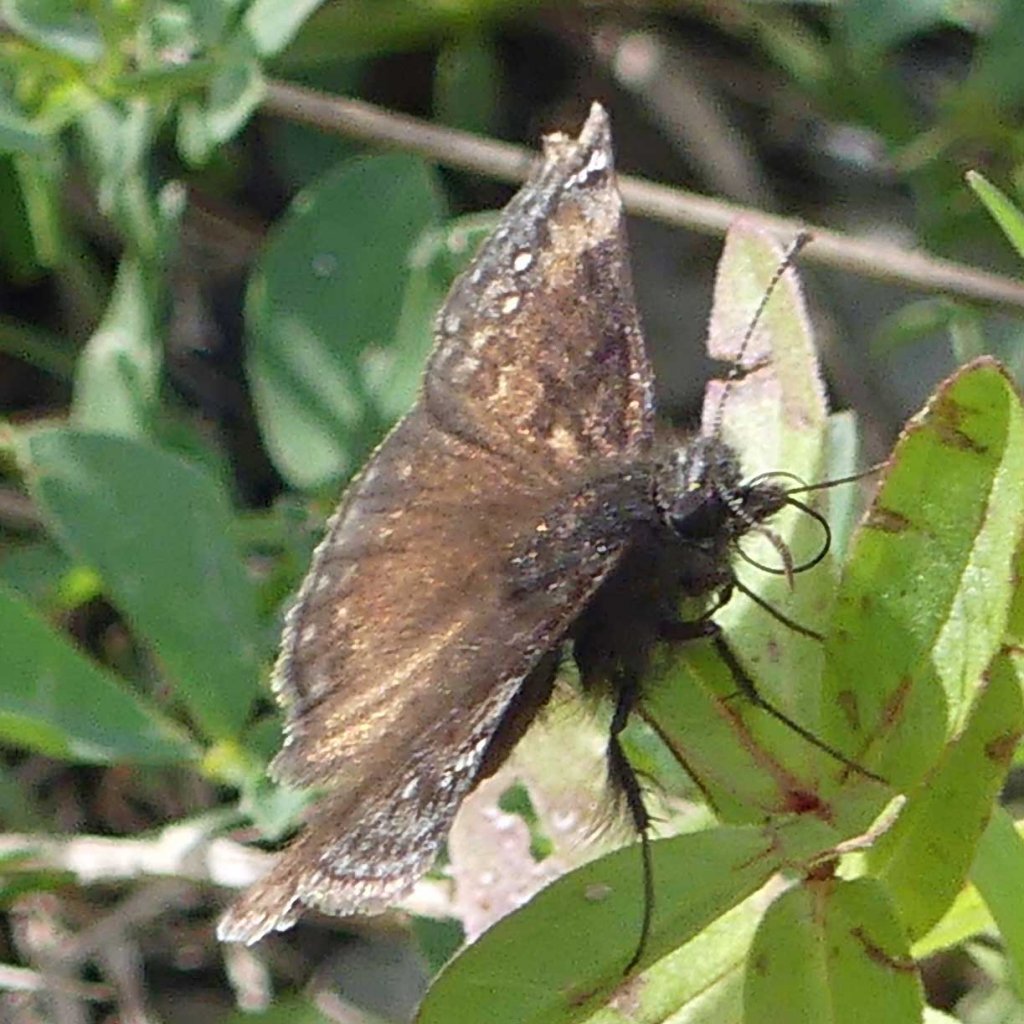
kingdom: Animalia
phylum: Arthropoda
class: Insecta
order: Lepidoptera
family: Hesperiidae
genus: Gesta
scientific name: Gesta
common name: Wild Indigo Duskywing
